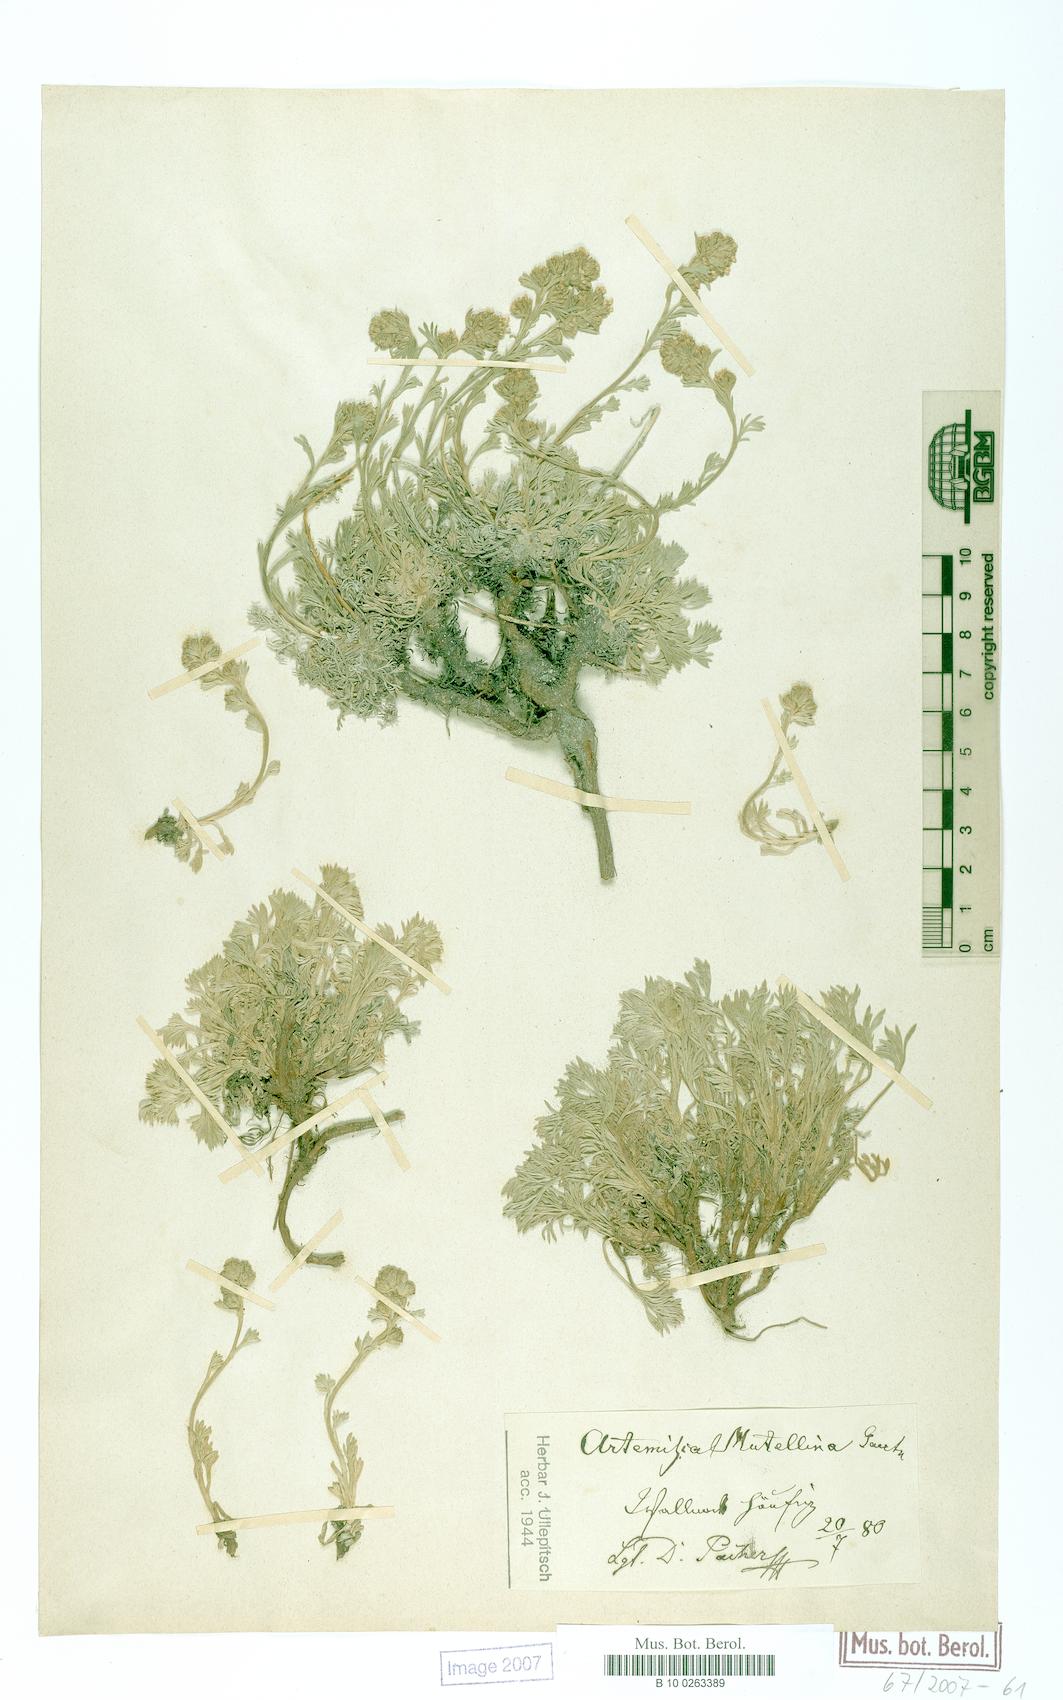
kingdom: Plantae
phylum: Tracheophyta
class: Magnoliopsida
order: Asterales
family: Asteraceae
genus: Artemisia
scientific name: Artemisia mutellina
